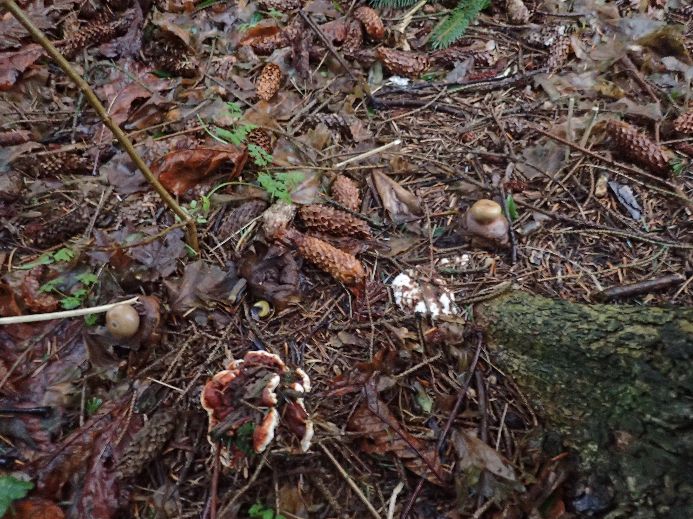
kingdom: Fungi
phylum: Basidiomycota
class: Agaricomycetes
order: Russulales
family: Bondarzewiaceae
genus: Heterobasidion
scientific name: Heterobasidion annosum
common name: almindelig rodfordærver
